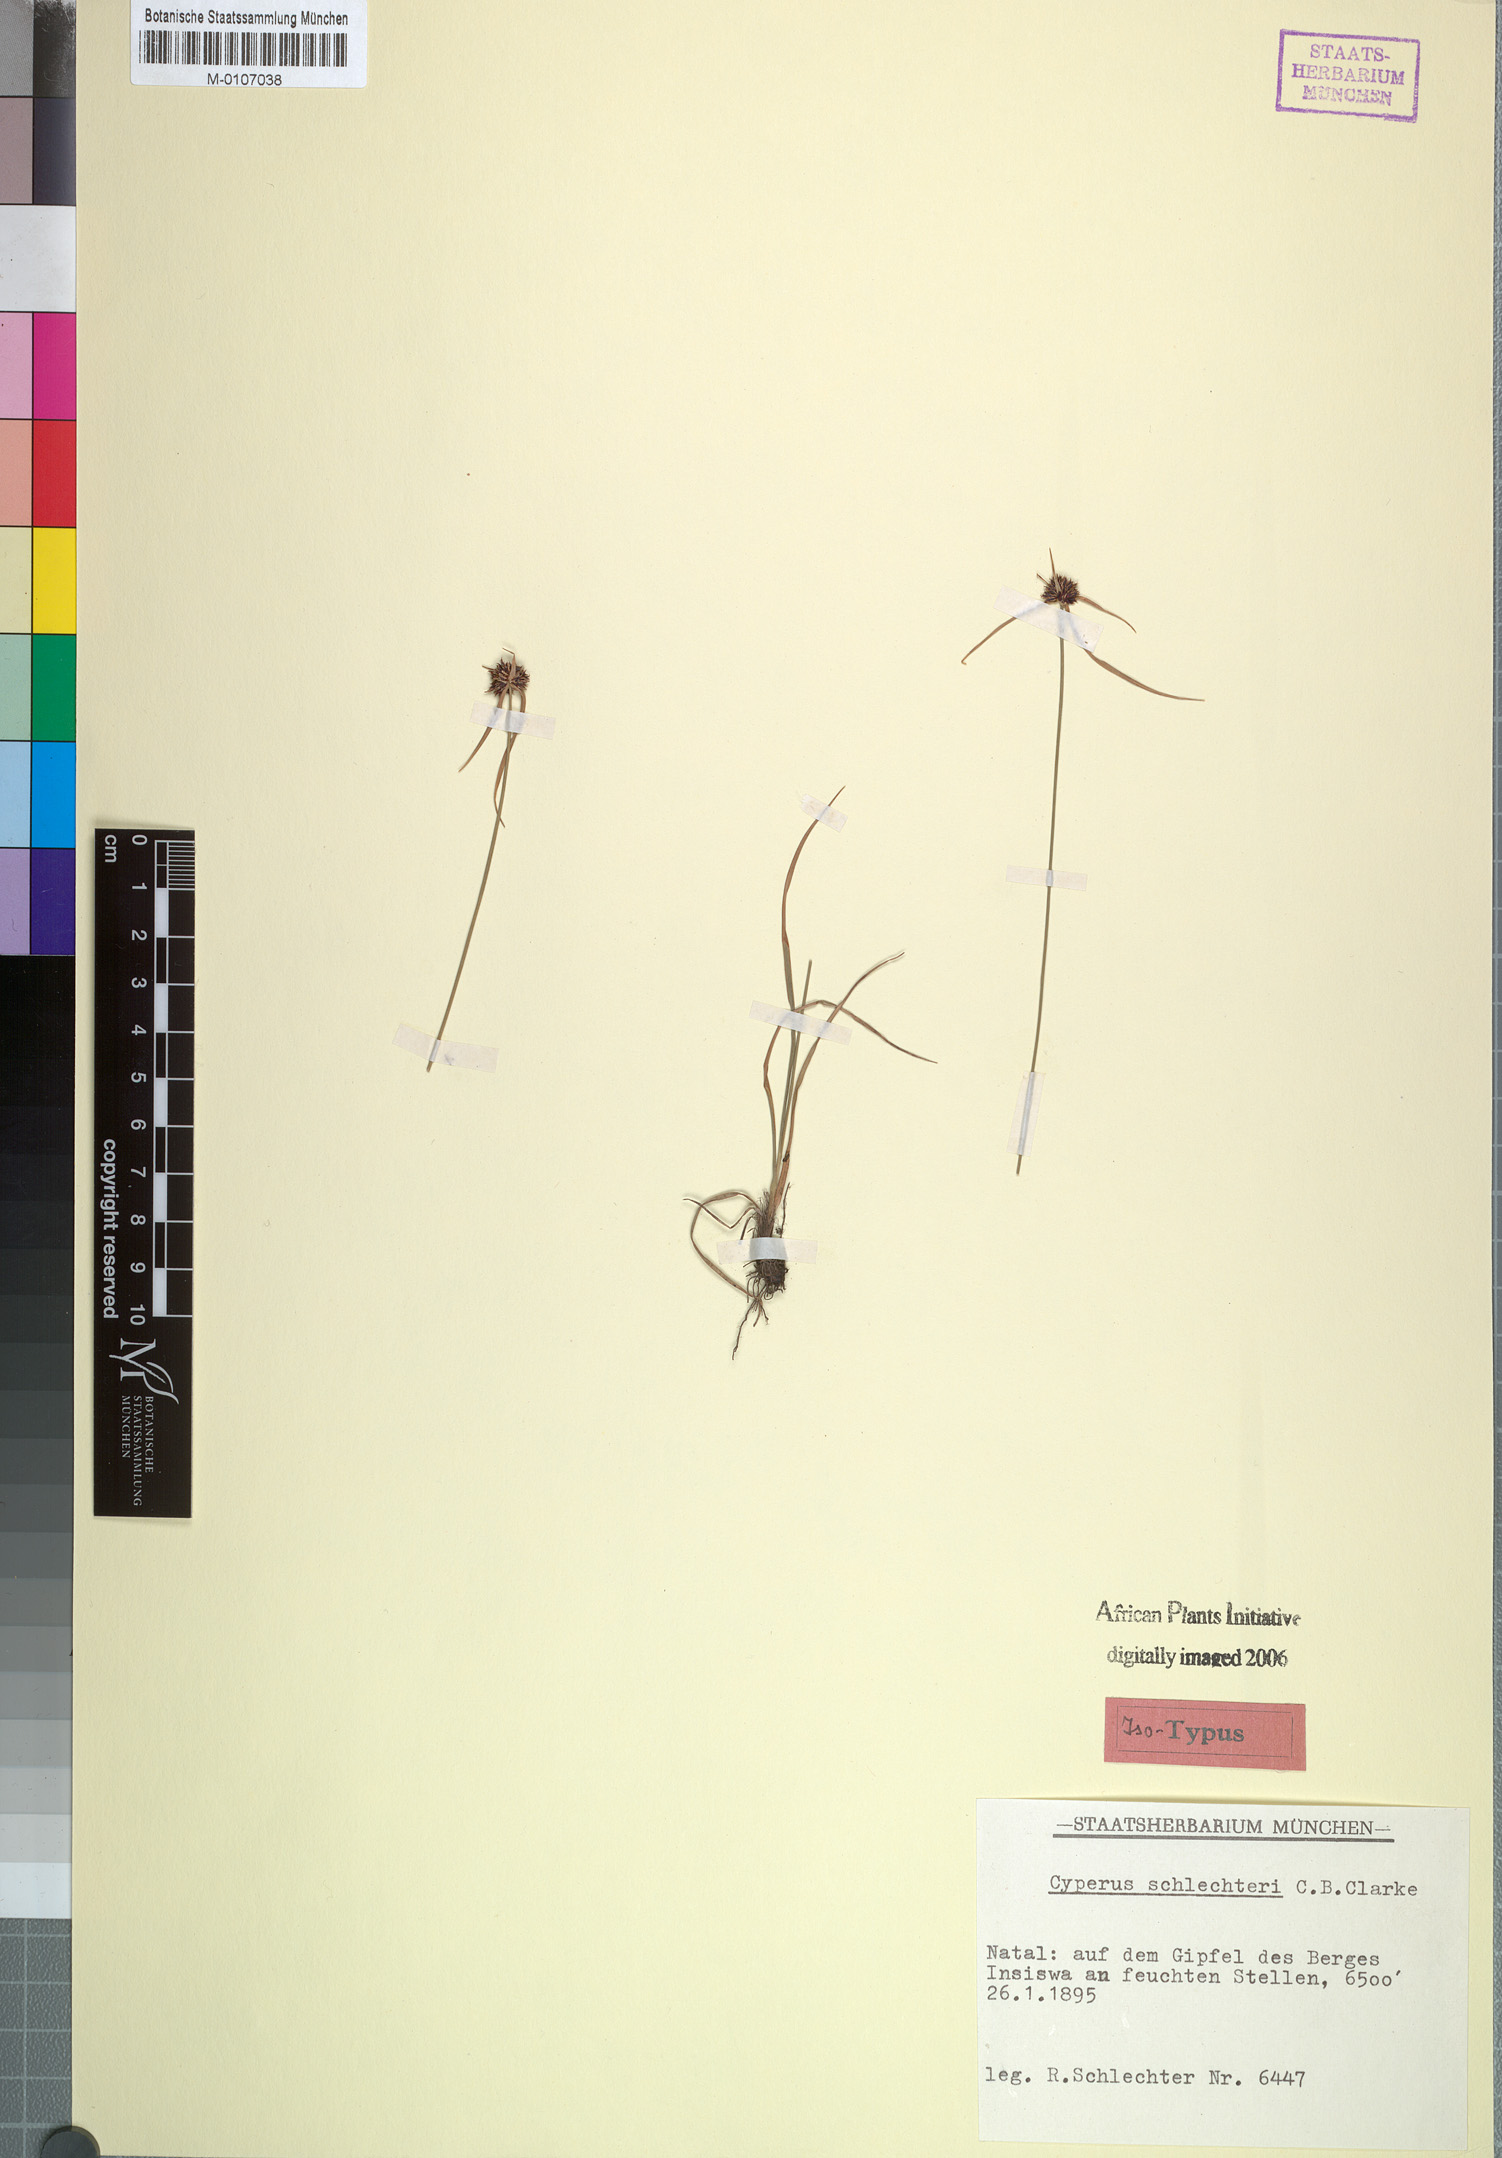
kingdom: Plantae
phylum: Tracheophyta
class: Liliopsida
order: Poales
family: Cyperaceae
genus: Cyperus
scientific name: Cyperus schlechteri
